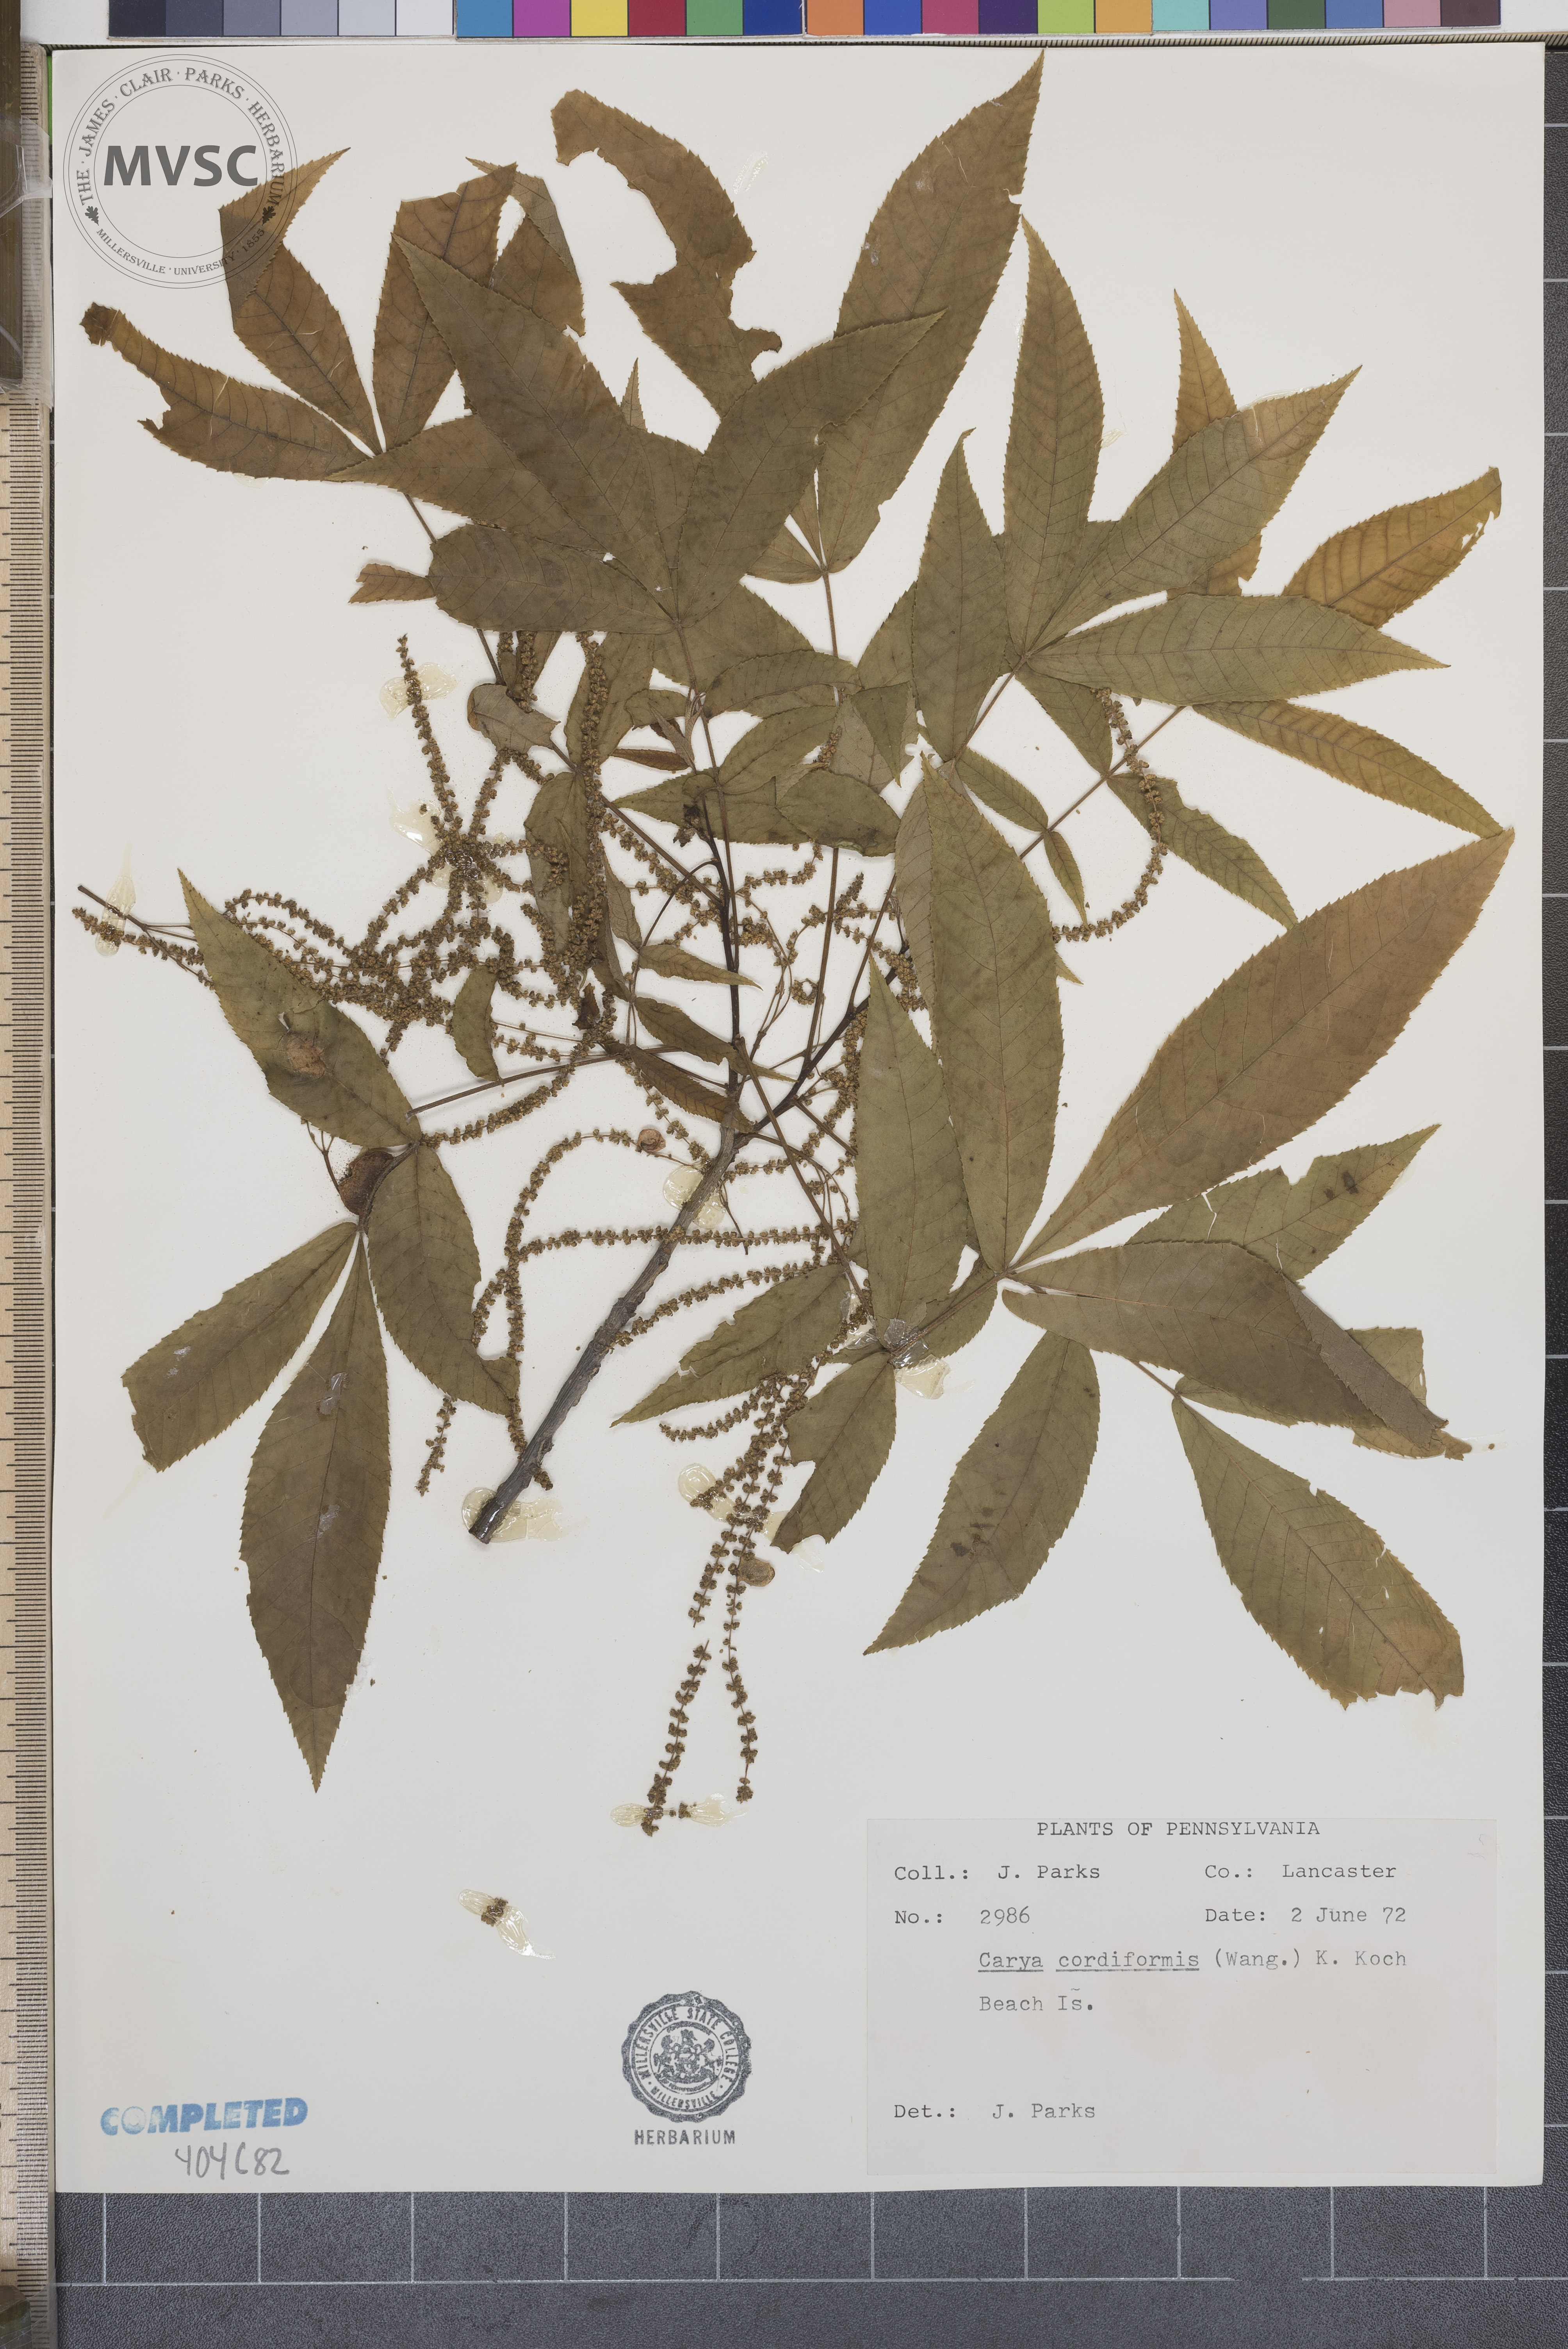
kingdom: Plantae
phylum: Tracheophyta
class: Magnoliopsida
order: Fagales
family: Juglandaceae
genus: Carya
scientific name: Carya cordiformis
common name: bitternut hickory
